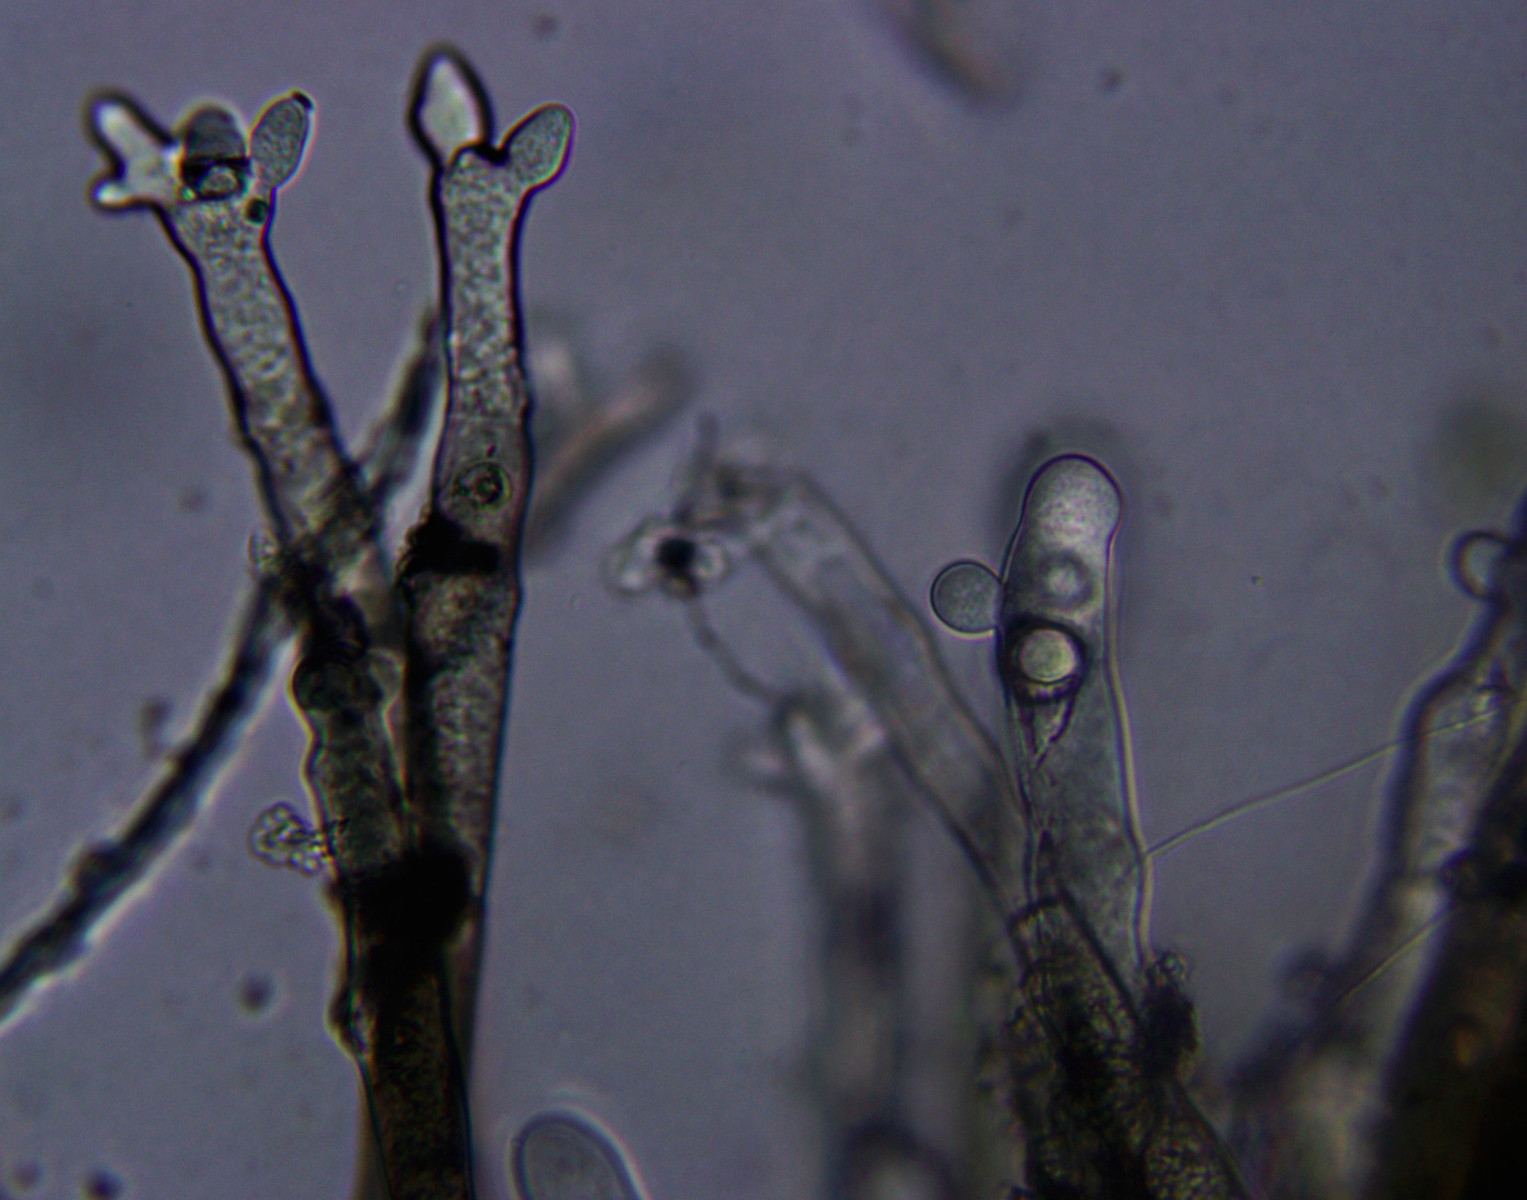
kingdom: Fungi
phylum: Ascomycota
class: Leotiomycetes
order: Helotiales
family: Sclerotiniaceae
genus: Botrytis
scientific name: Botrytis cinerea
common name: Grey mould
